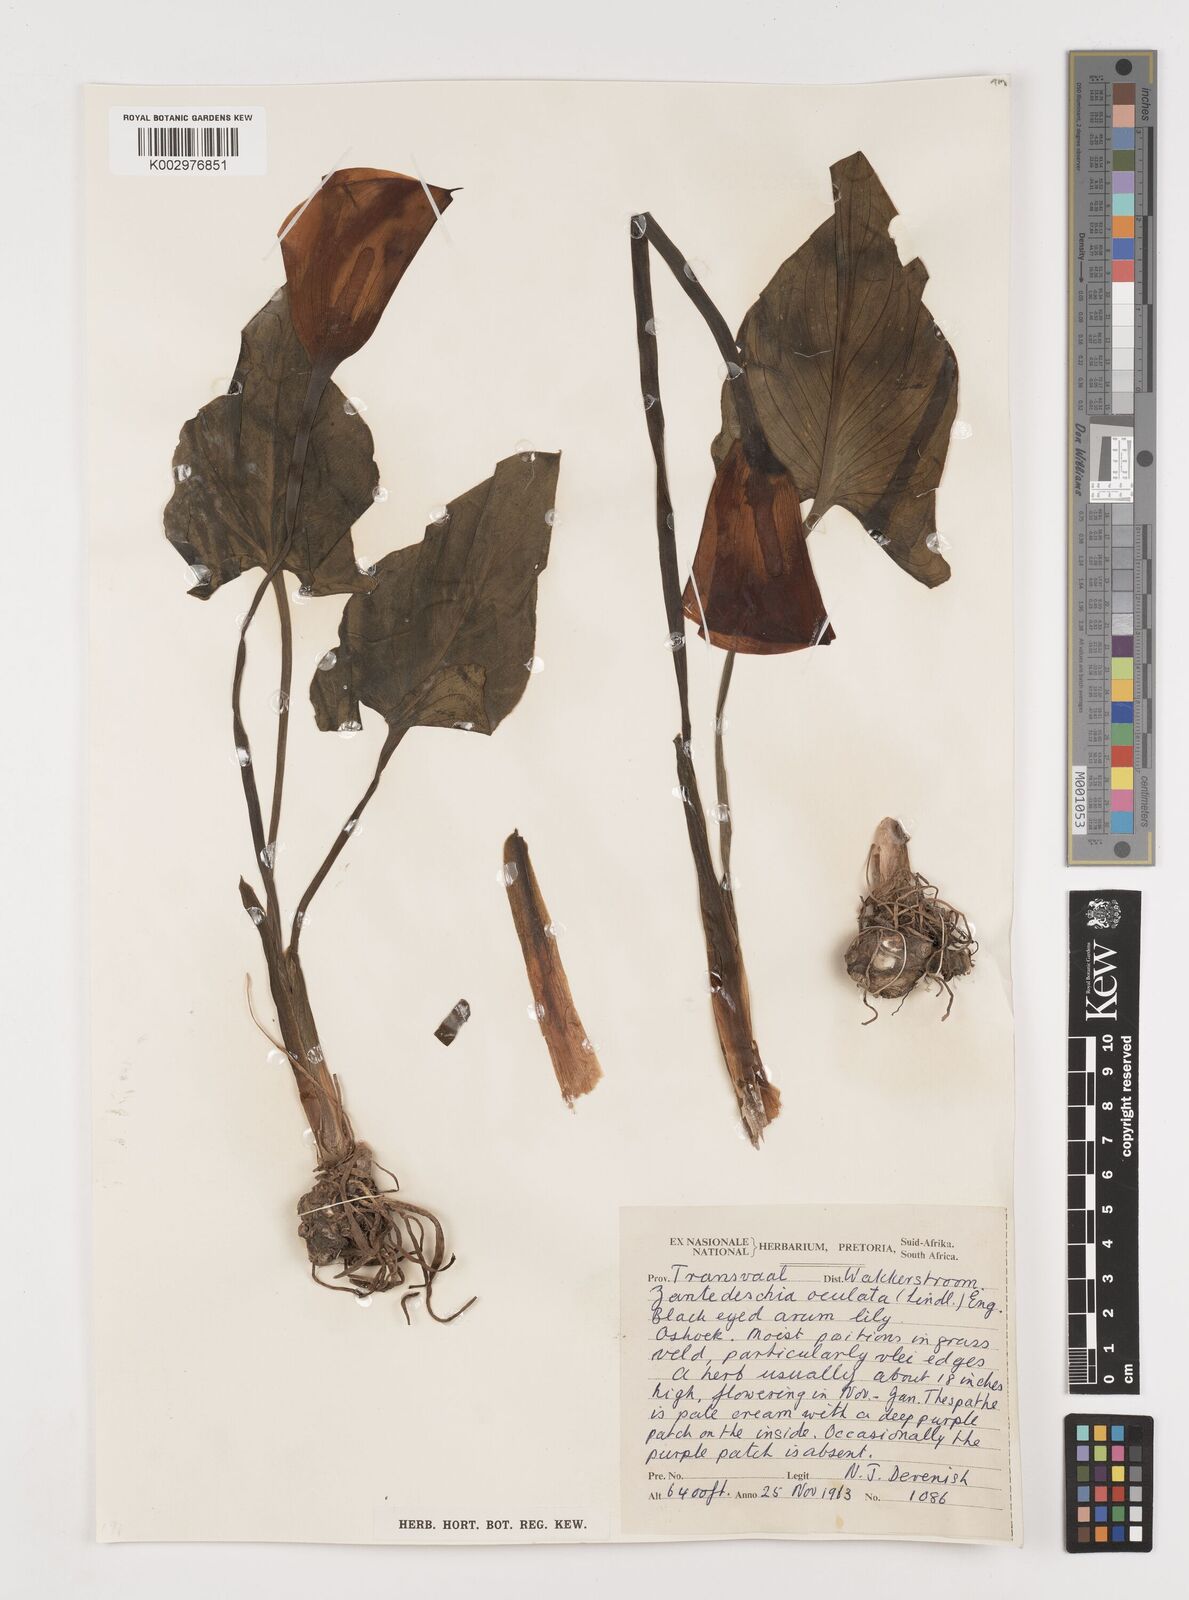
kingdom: Plantae
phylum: Tracheophyta
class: Liliopsida
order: Alismatales
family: Araceae
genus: Zantedeschia
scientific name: Zantedeschia albomaculata
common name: Spotted calla lily
